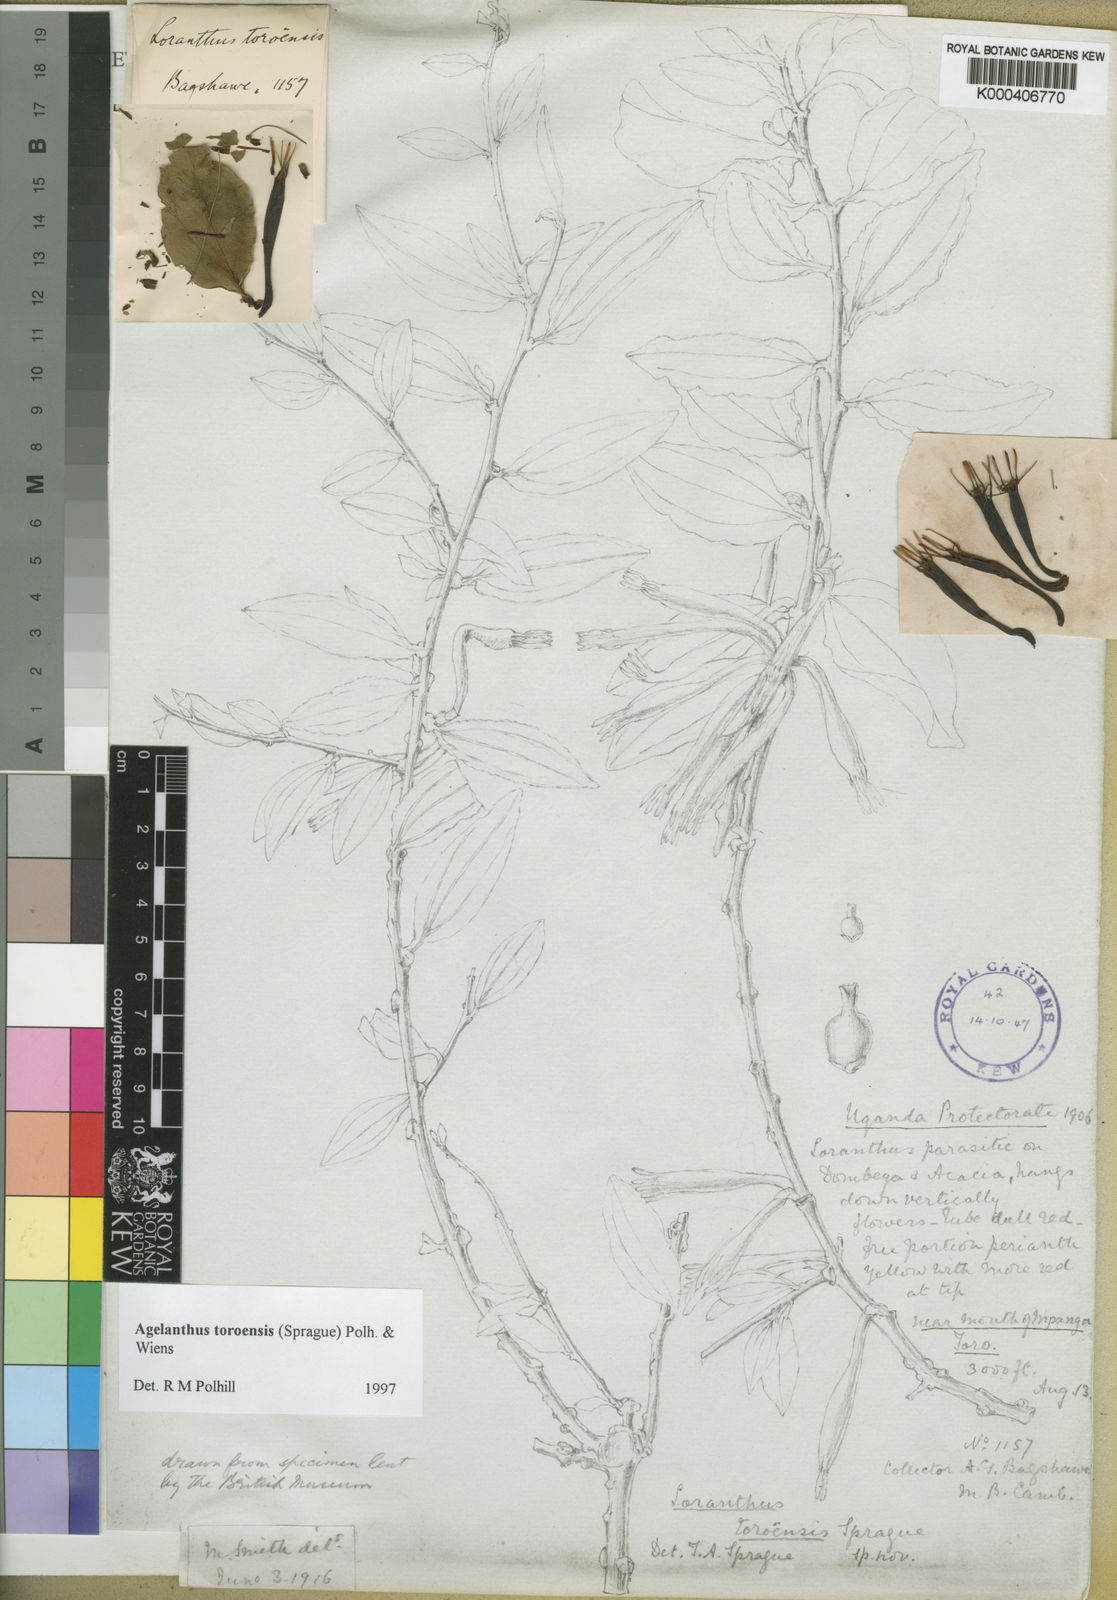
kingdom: Plantae
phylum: Tracheophyta
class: Magnoliopsida
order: Santalales
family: Loranthaceae
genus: Agelanthus
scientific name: Agelanthus toroensis
